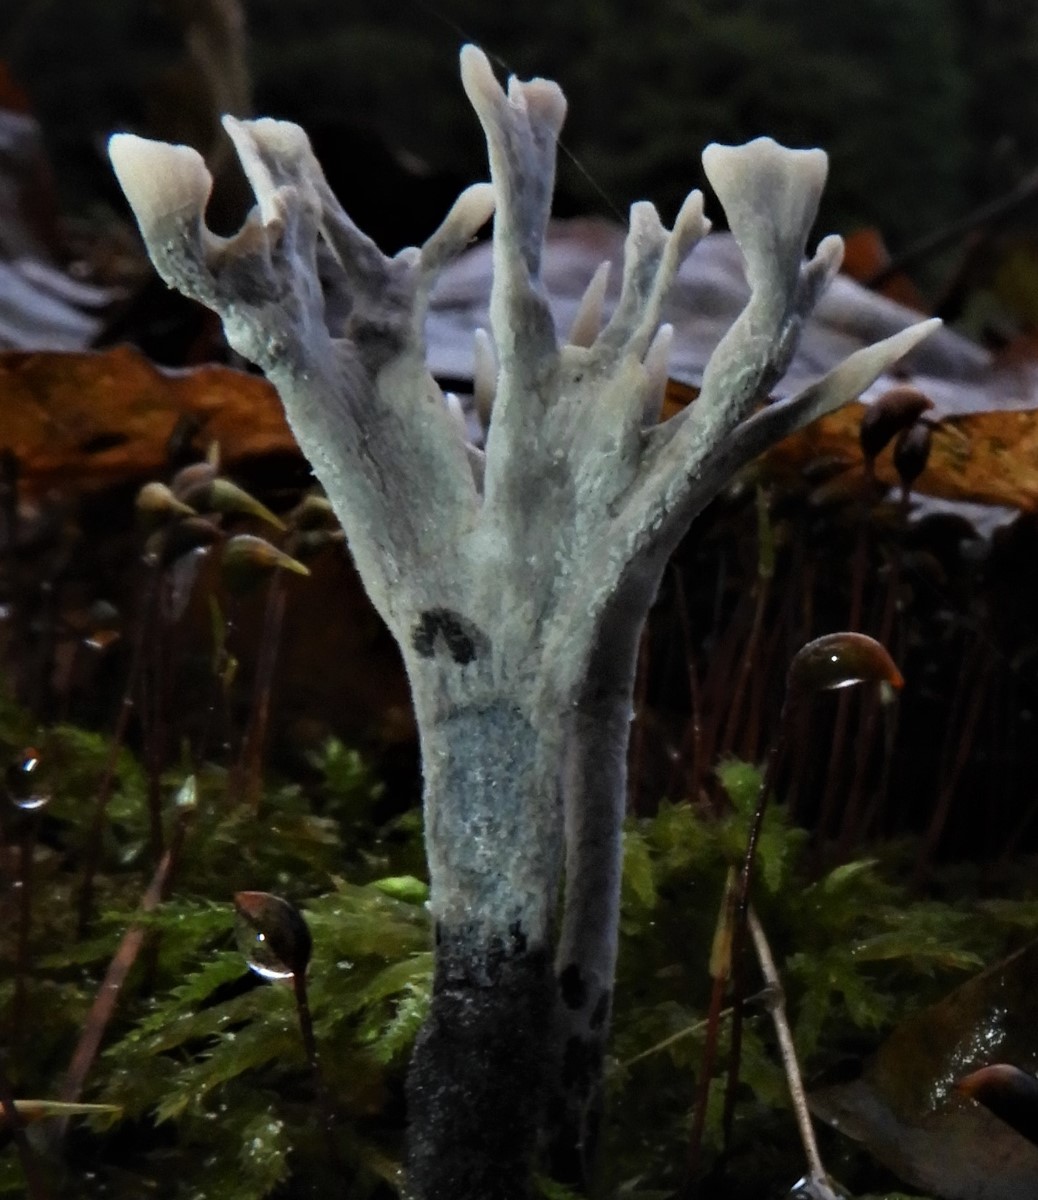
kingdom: Fungi
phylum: Ascomycota
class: Sordariomycetes
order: Xylariales
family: Xylariaceae
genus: Xylaria
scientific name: Xylaria hypoxylon
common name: grenet stødsvamp
